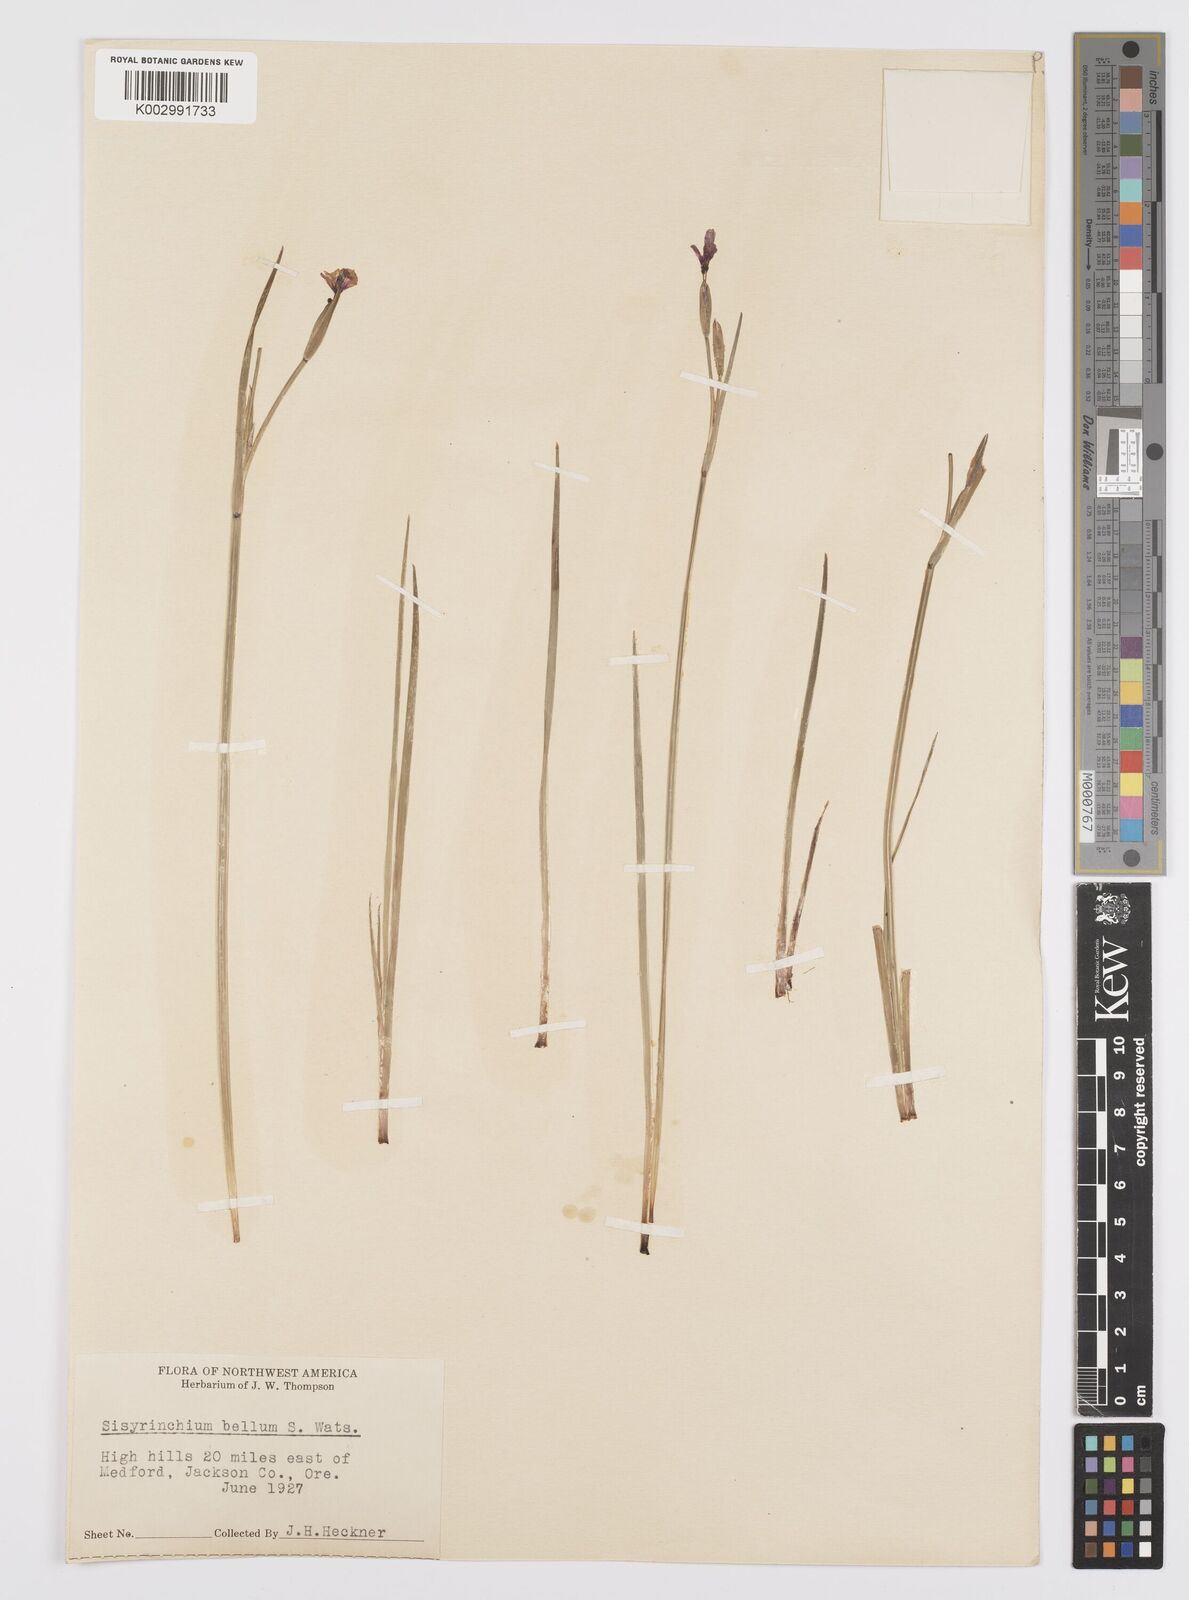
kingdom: Plantae
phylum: Tracheophyta
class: Liliopsida
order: Asparagales
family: Iridaceae
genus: Sisyrinchium
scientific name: Sisyrinchium bellum
